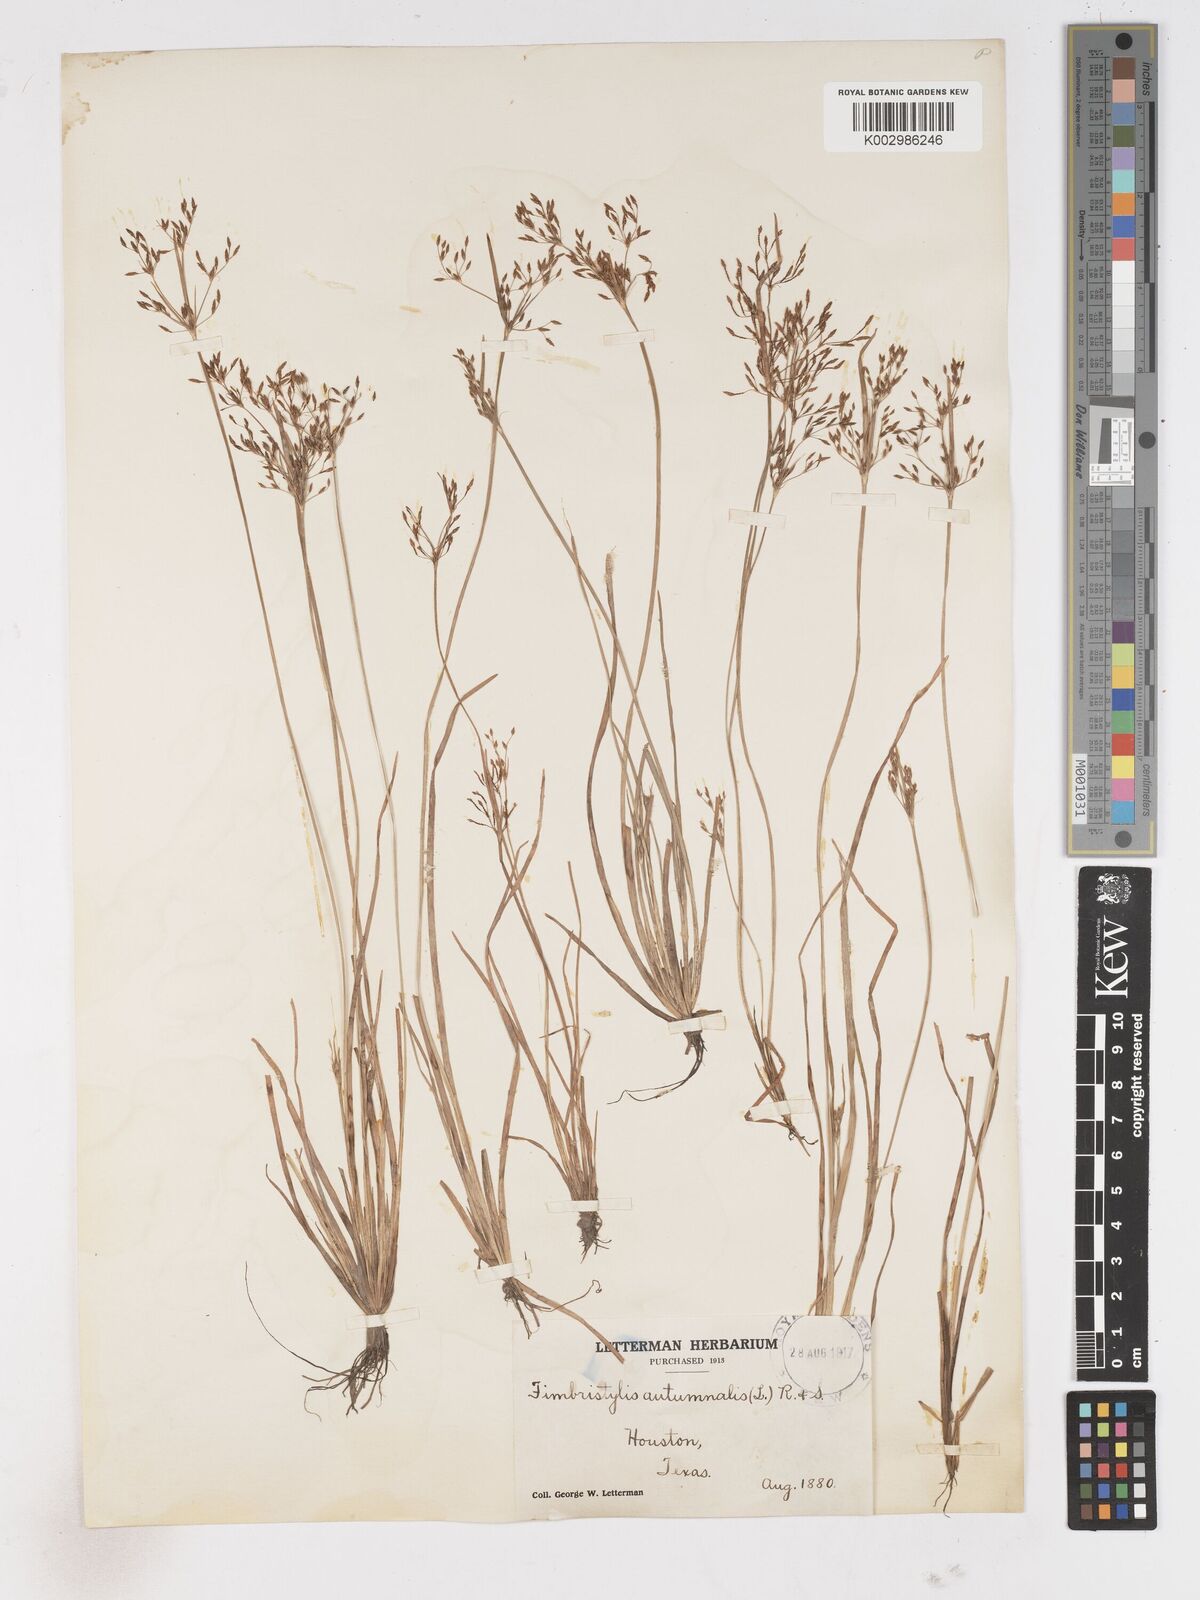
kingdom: Plantae
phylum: Tracheophyta
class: Liliopsida
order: Poales
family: Cyperaceae
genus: Fimbristylis
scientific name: Fimbristylis autumnalis
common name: Slender fimbristylis
